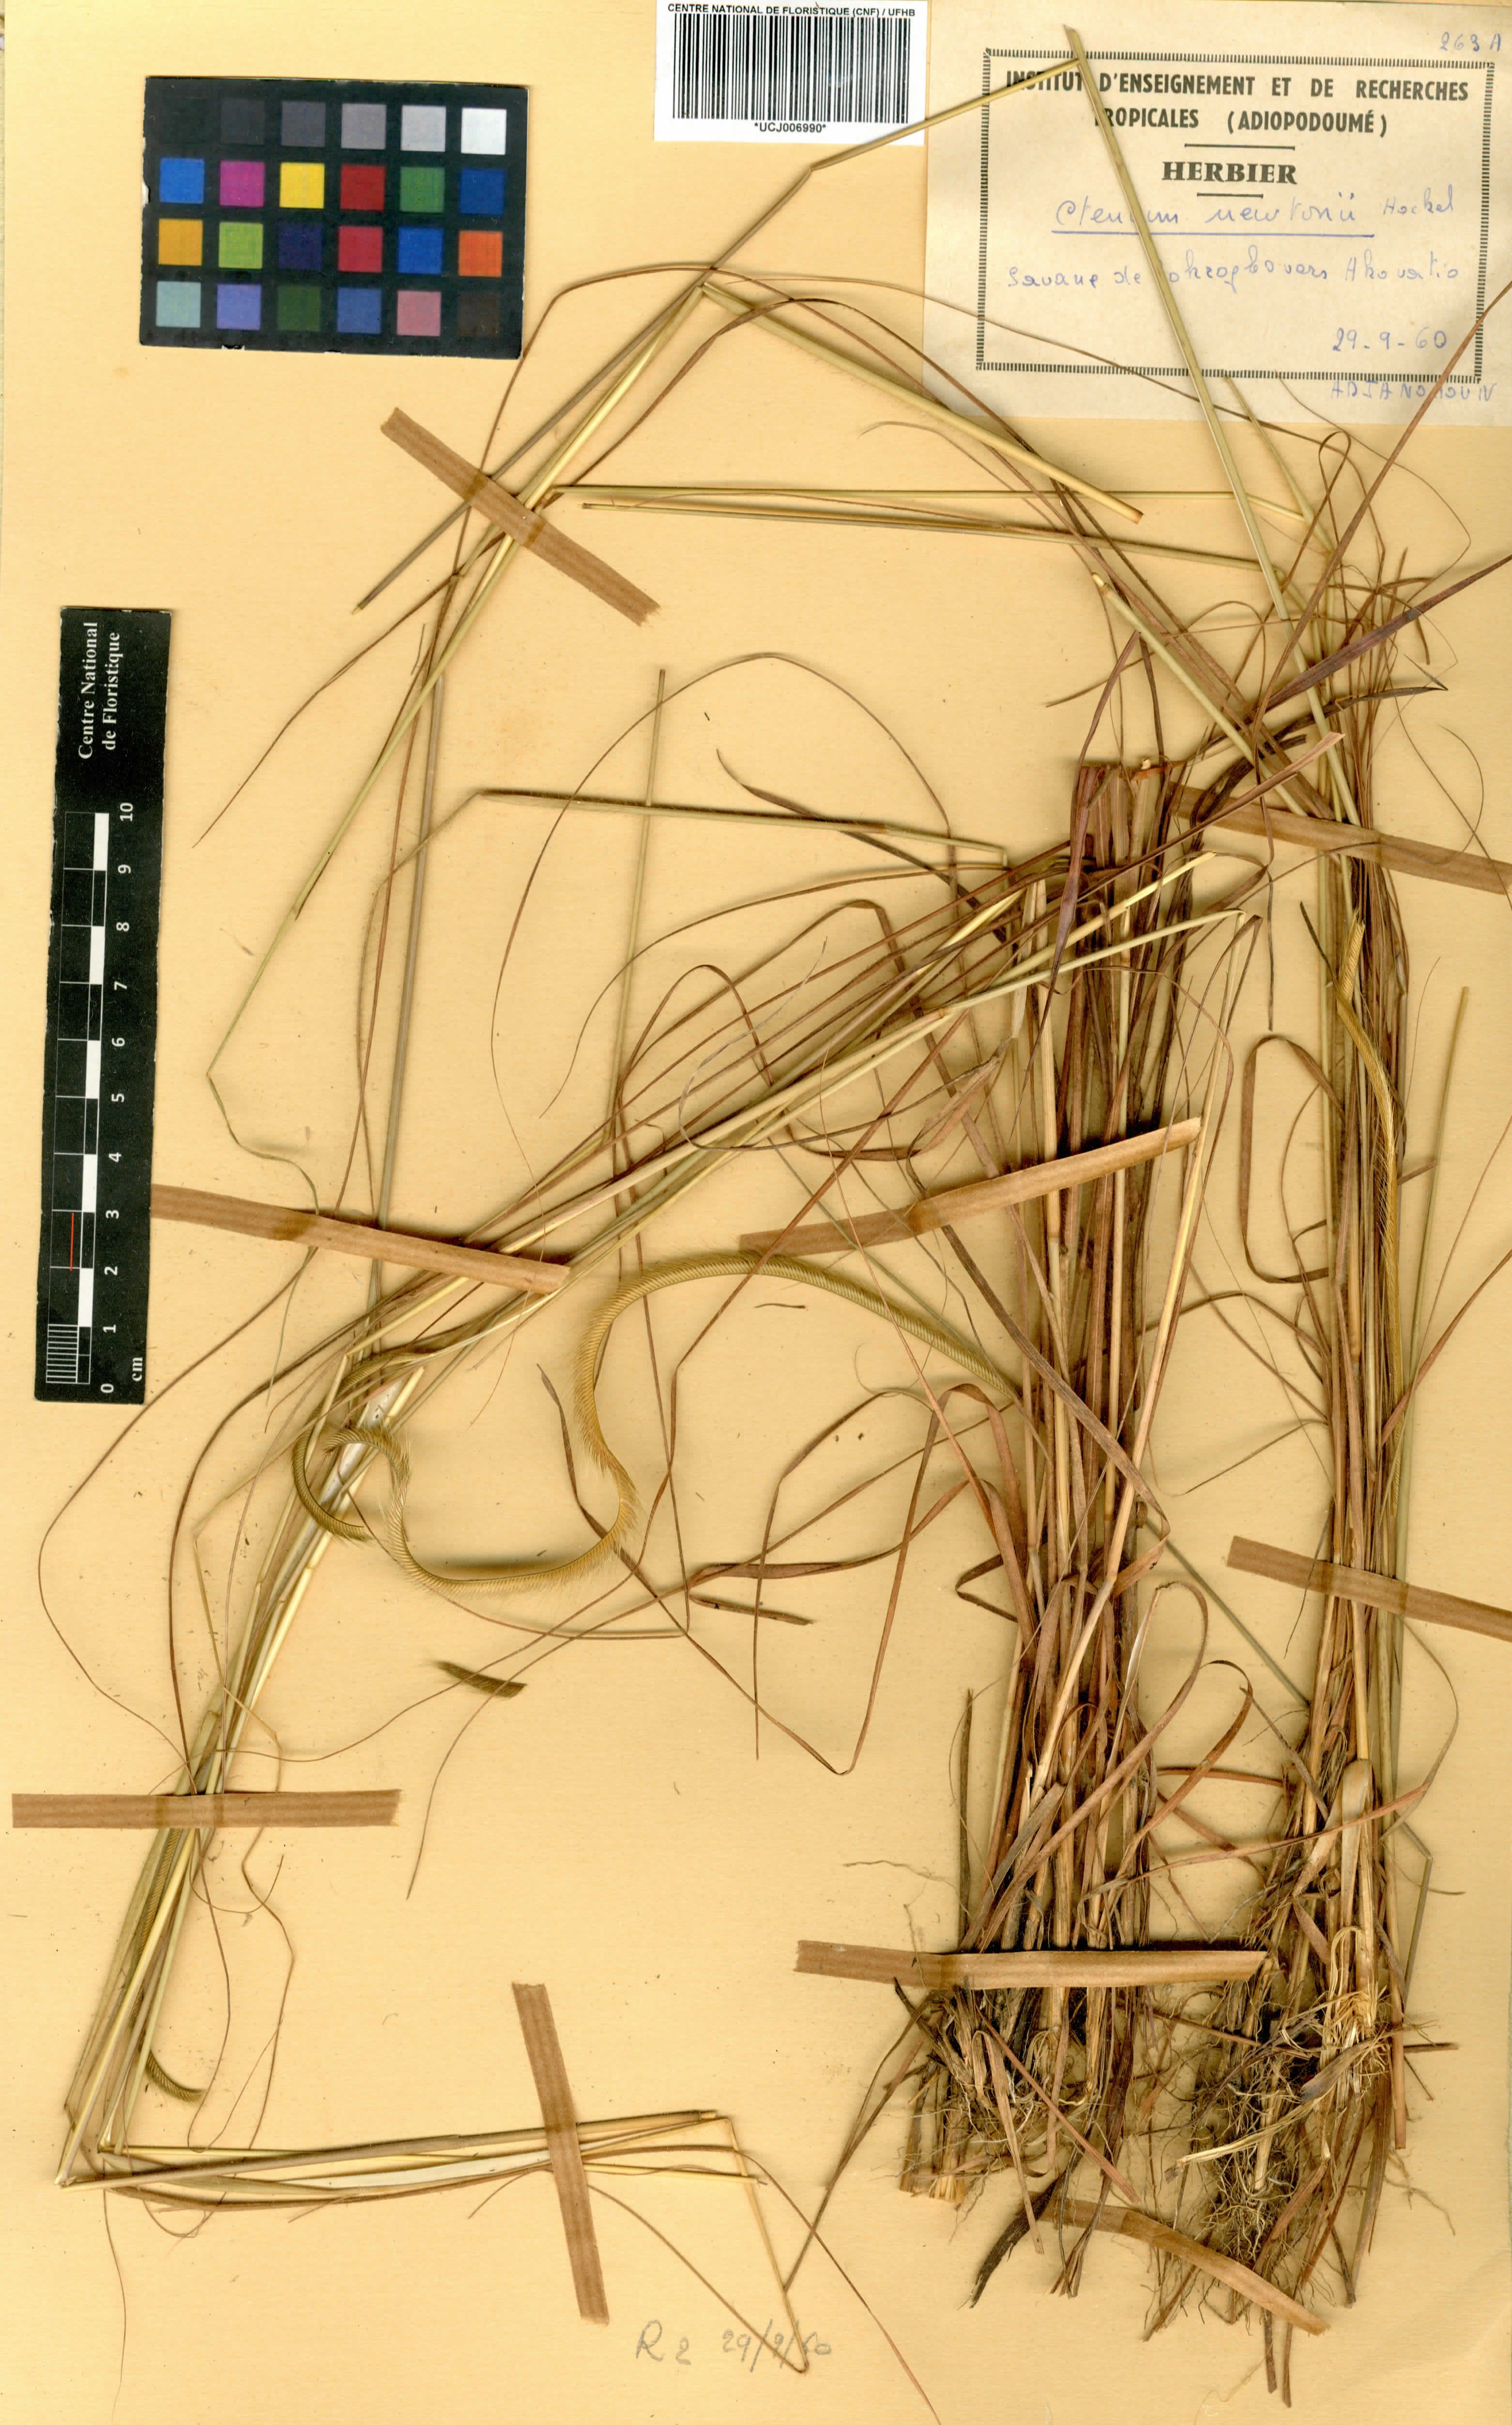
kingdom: Plantae
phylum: Tracheophyta
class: Liliopsida
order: Poales
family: Poaceae
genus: Ctenium
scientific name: Ctenium newtonii
